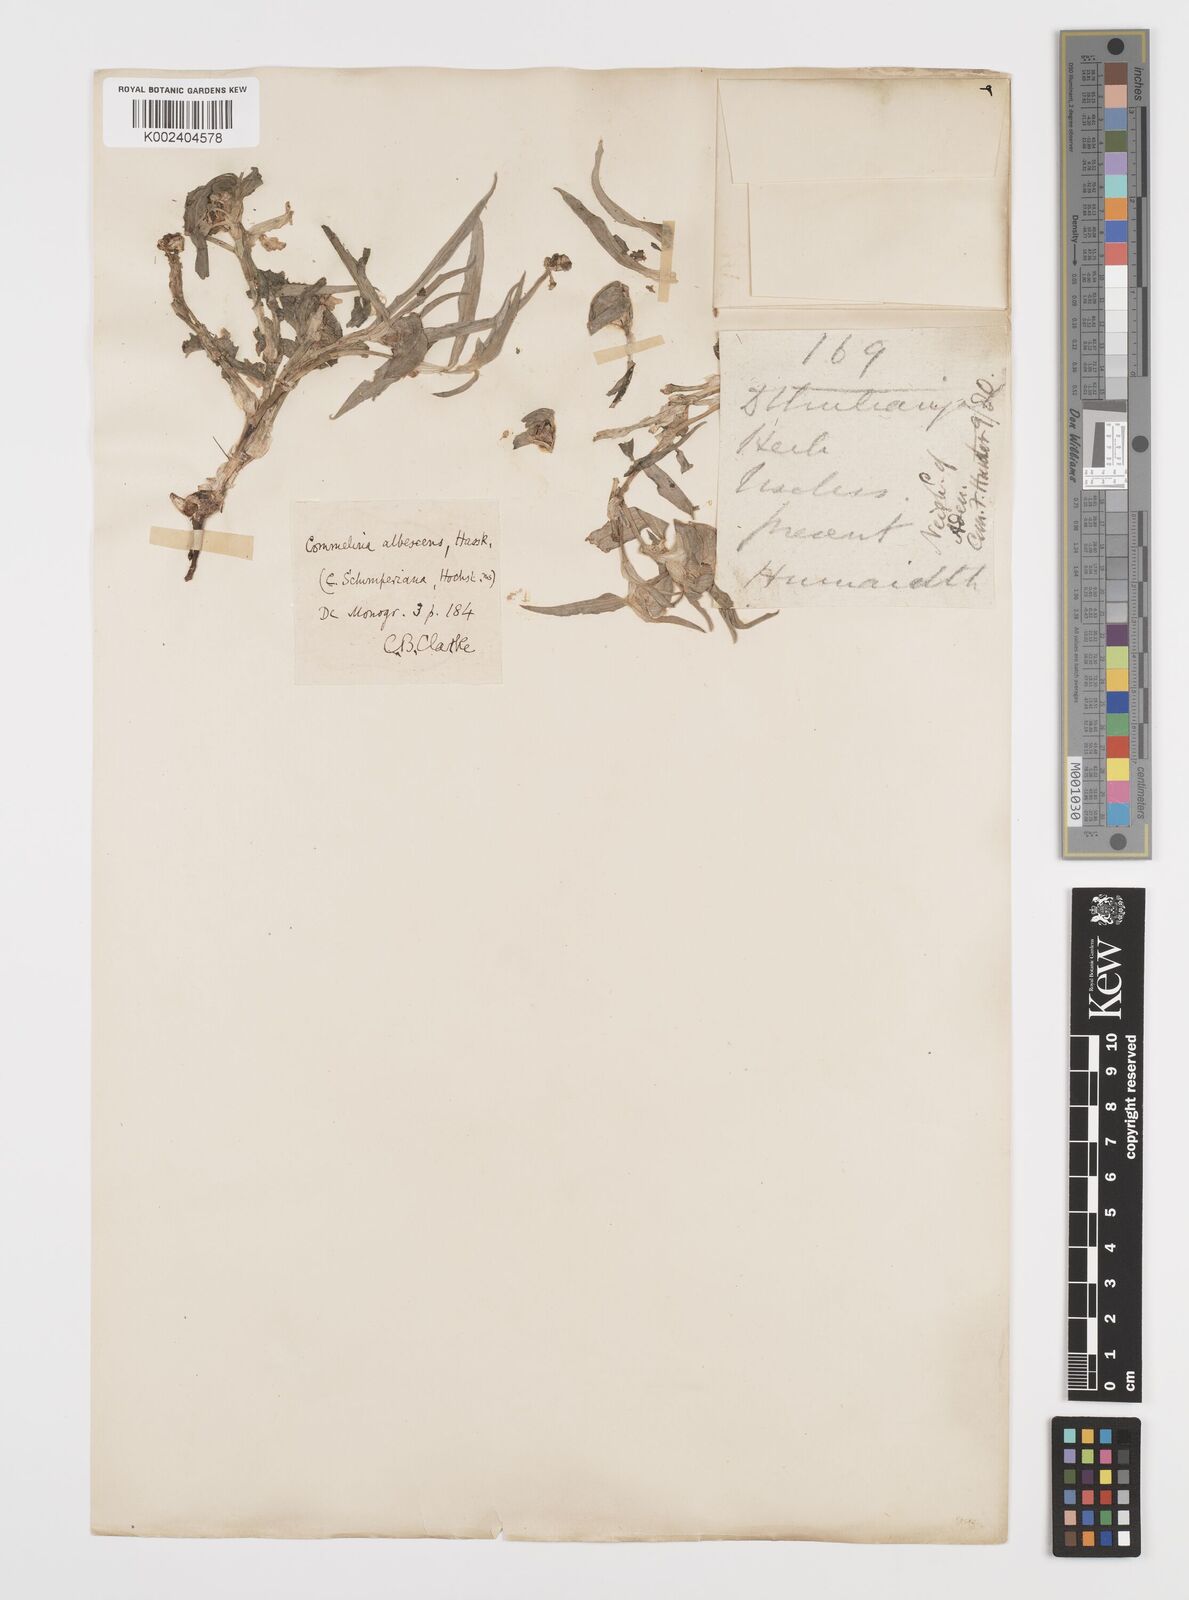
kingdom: Plantae
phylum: Tracheophyta
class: Liliopsida
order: Commelinales
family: Commelinaceae
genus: Commelina
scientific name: Commelina albescens
